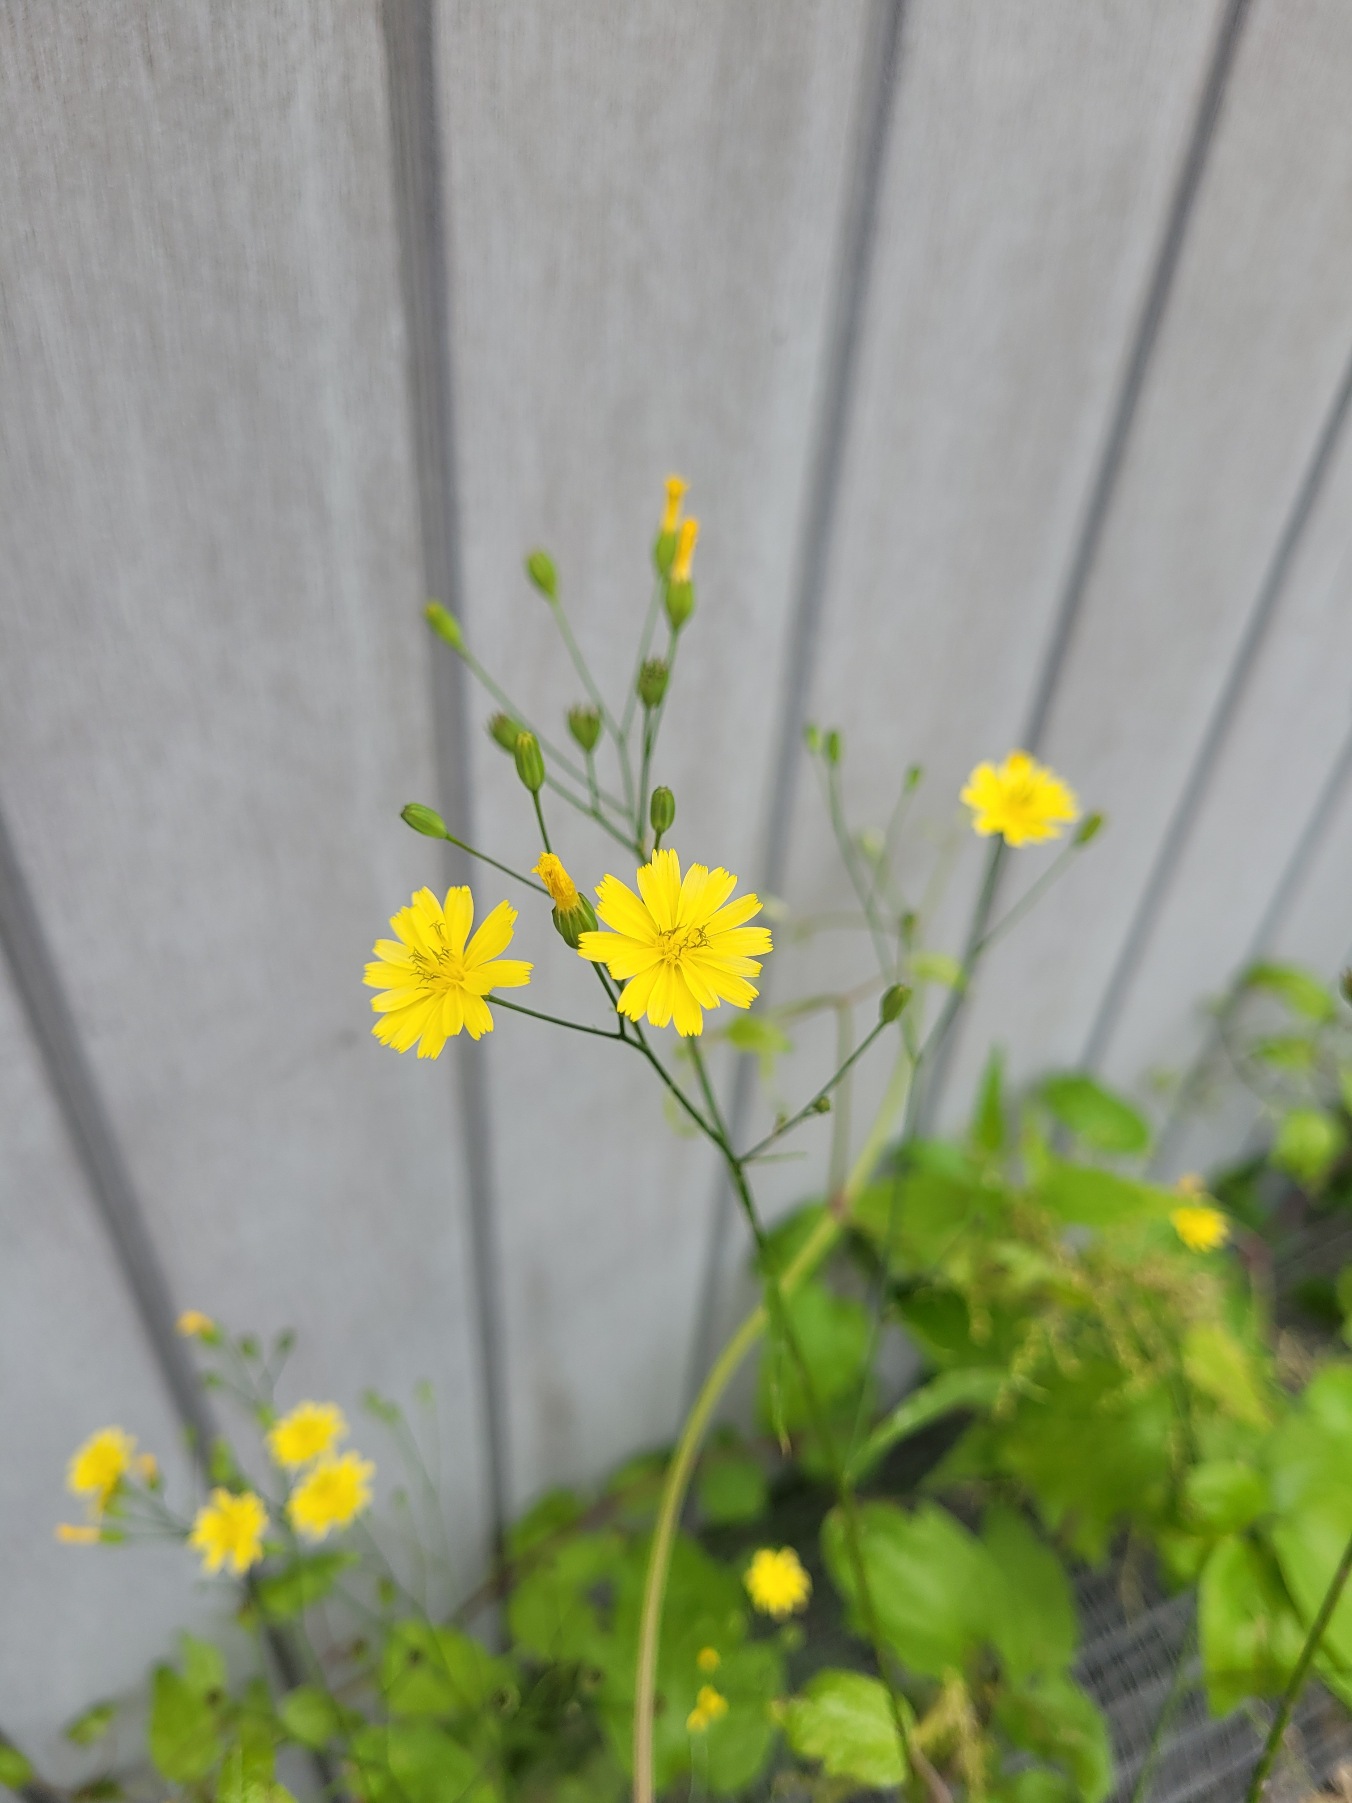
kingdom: Plantae
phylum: Tracheophyta
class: Magnoliopsida
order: Asterales
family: Asteraceae
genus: Lapsana
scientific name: Lapsana communis
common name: Haremad
